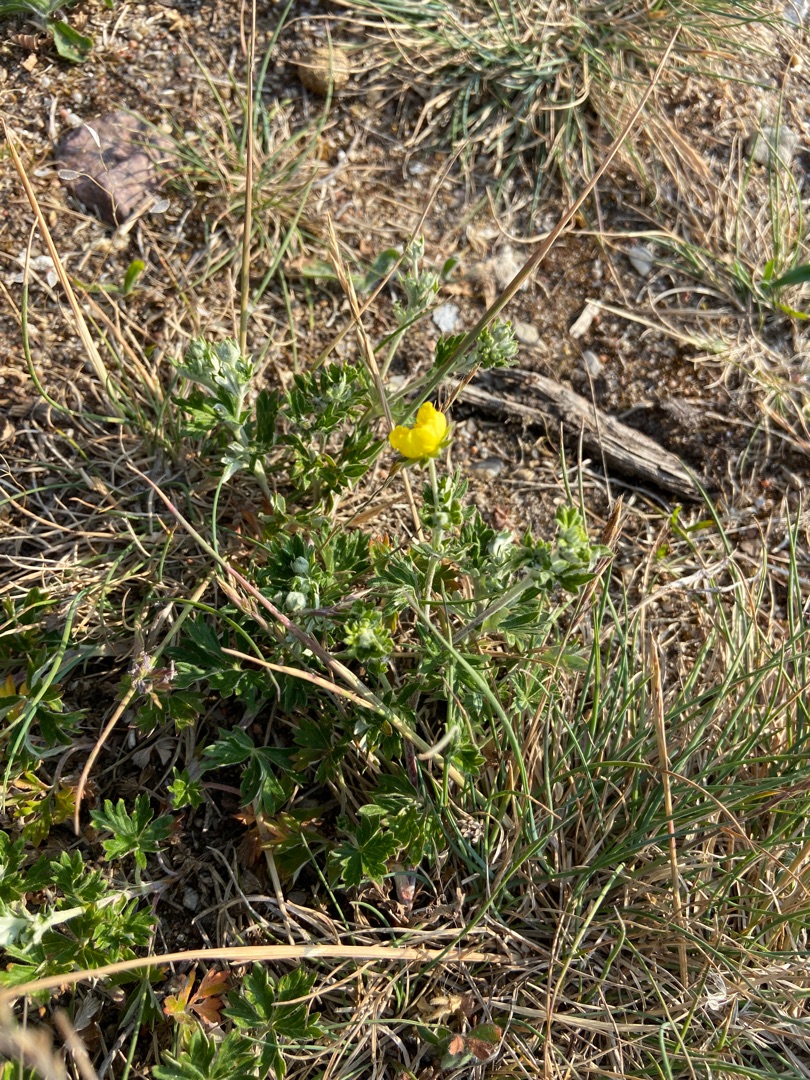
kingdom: Plantae
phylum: Tracheophyta
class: Magnoliopsida
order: Rosales
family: Rosaceae
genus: Potentilla
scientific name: Potentilla argentea
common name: Sølv-potentil
